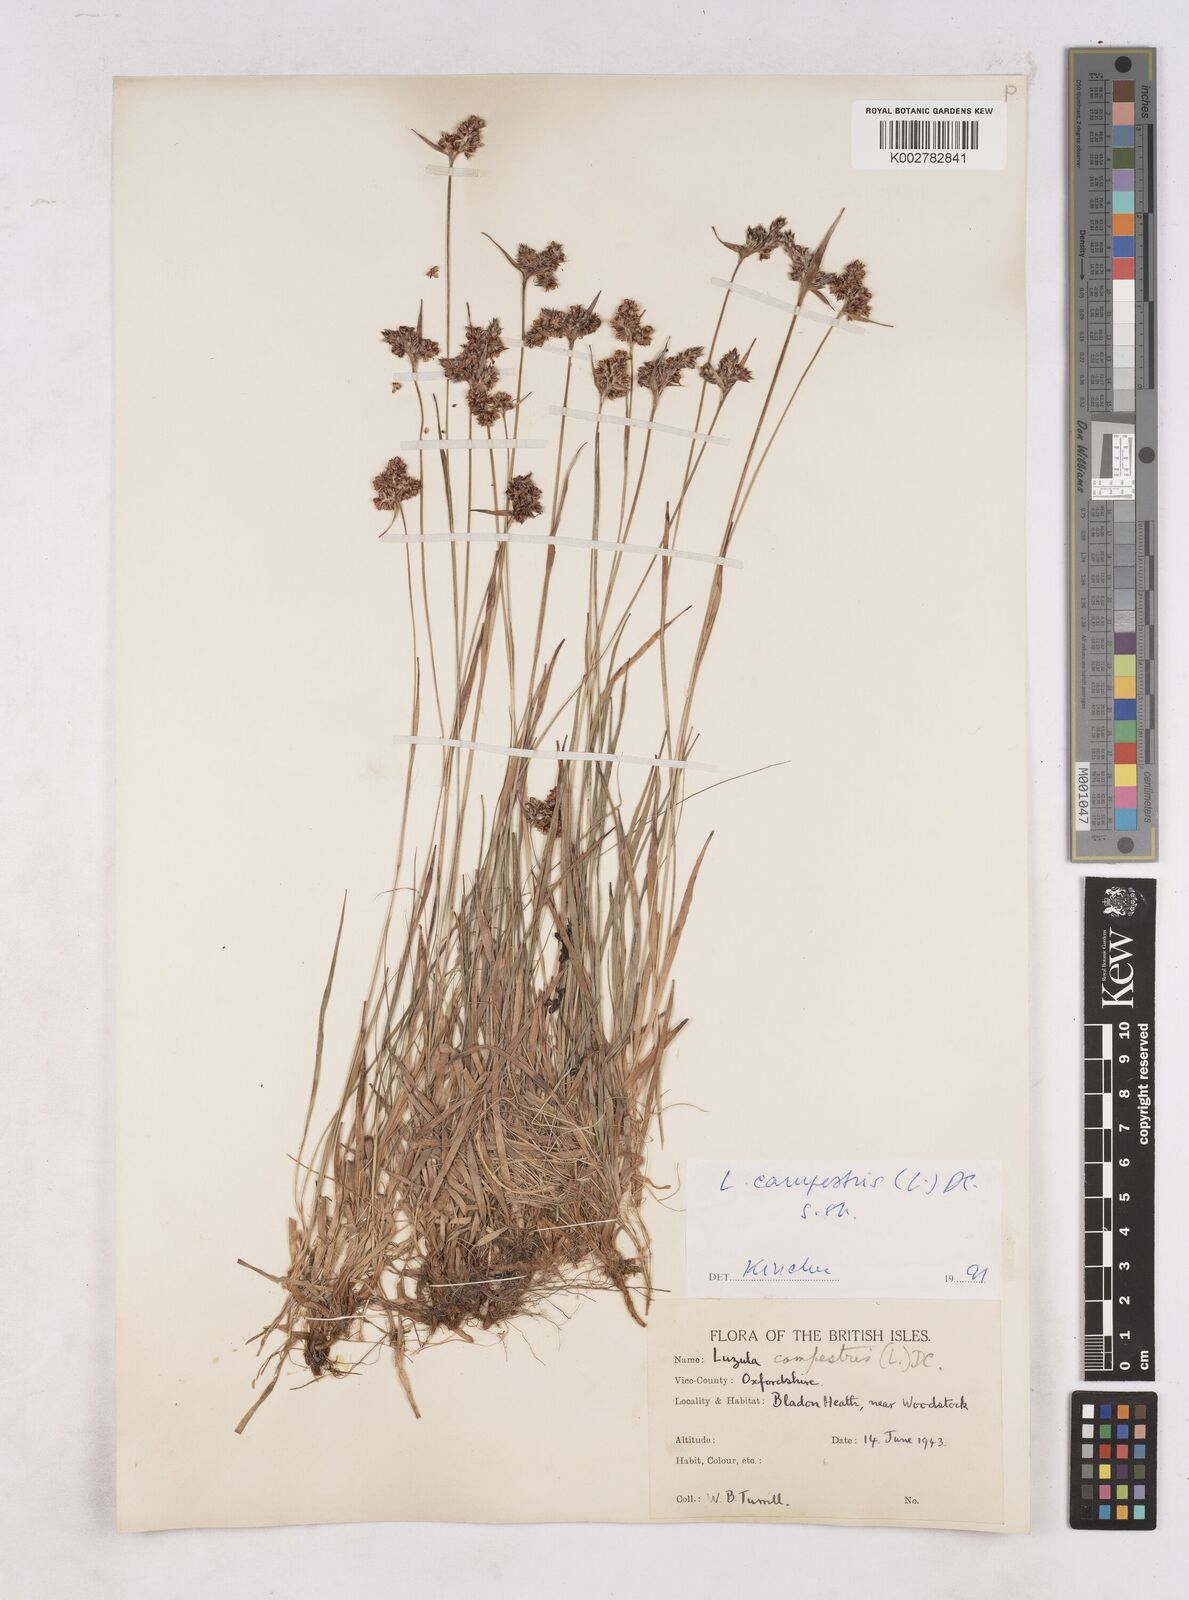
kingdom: Plantae
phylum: Tracheophyta
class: Liliopsida
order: Poales
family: Juncaceae
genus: Luzula
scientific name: Luzula campestris
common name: Field wood-rush
